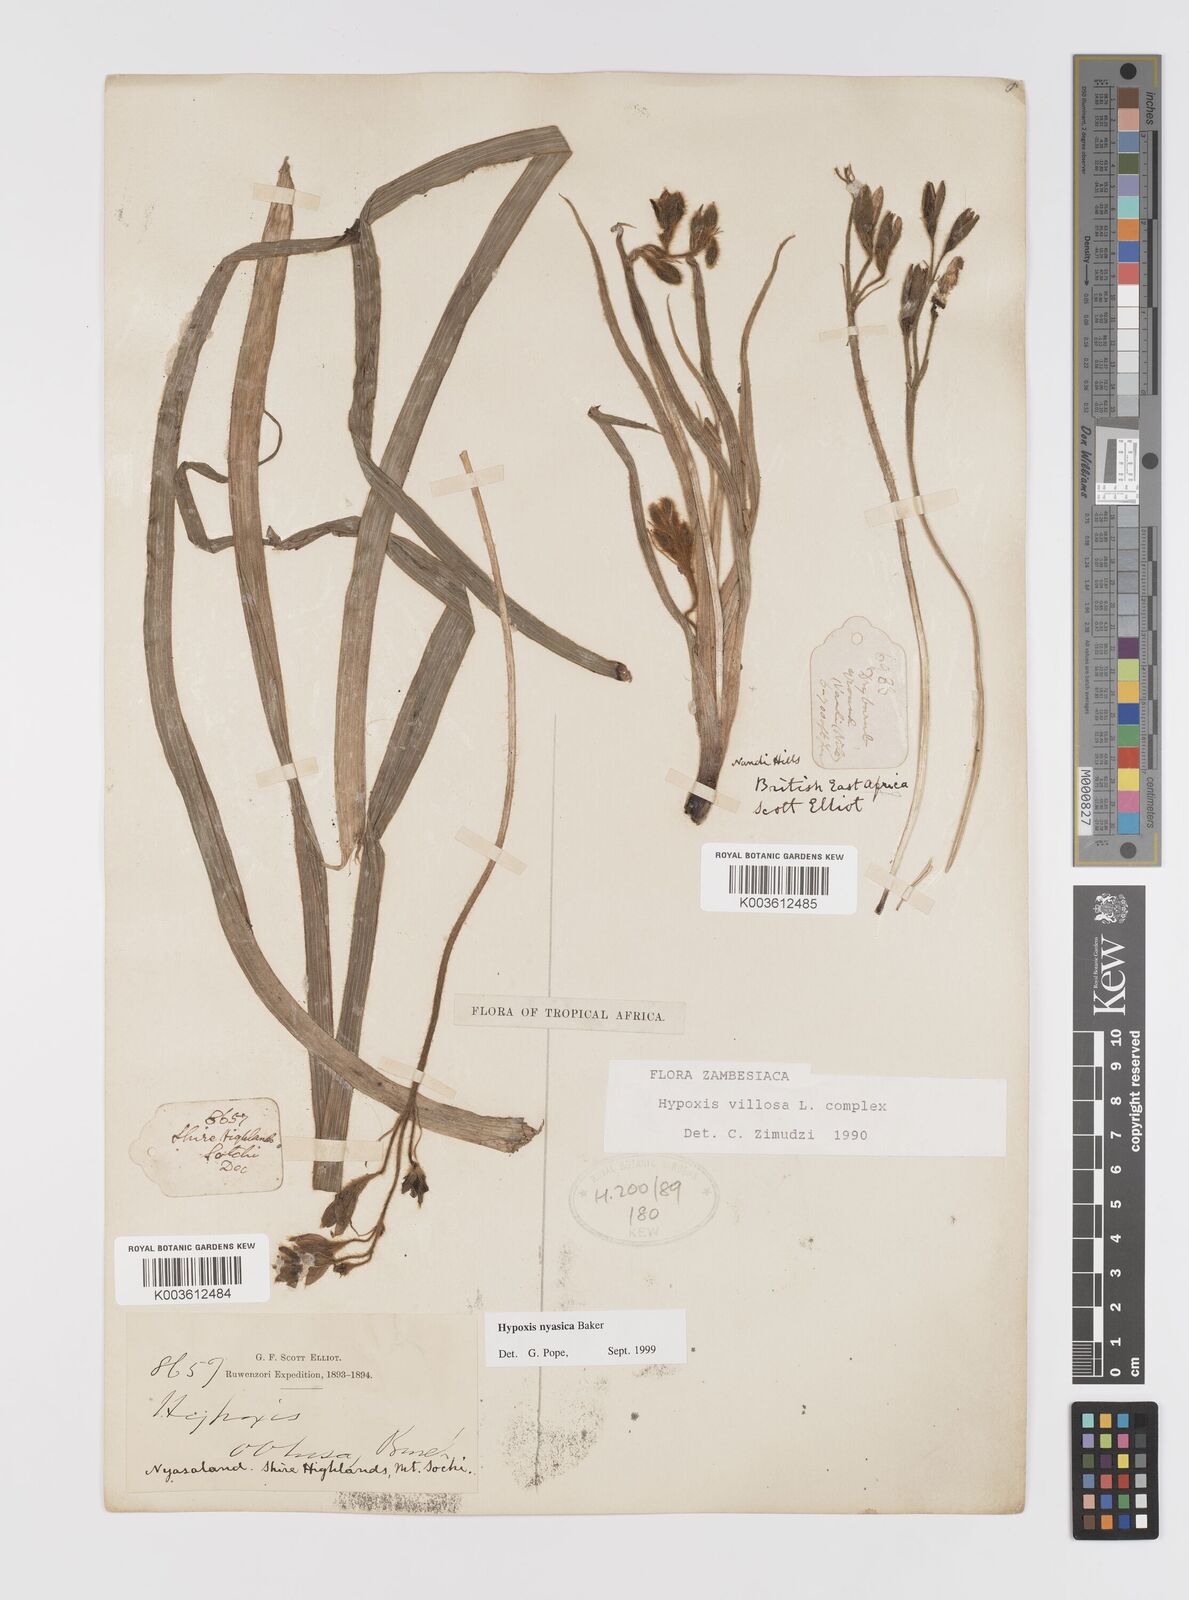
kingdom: Plantae
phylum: Tracheophyta
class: Liliopsida
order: Asparagales
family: Hypoxidaceae
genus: Hypoxis
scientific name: Hypoxis nyasica
